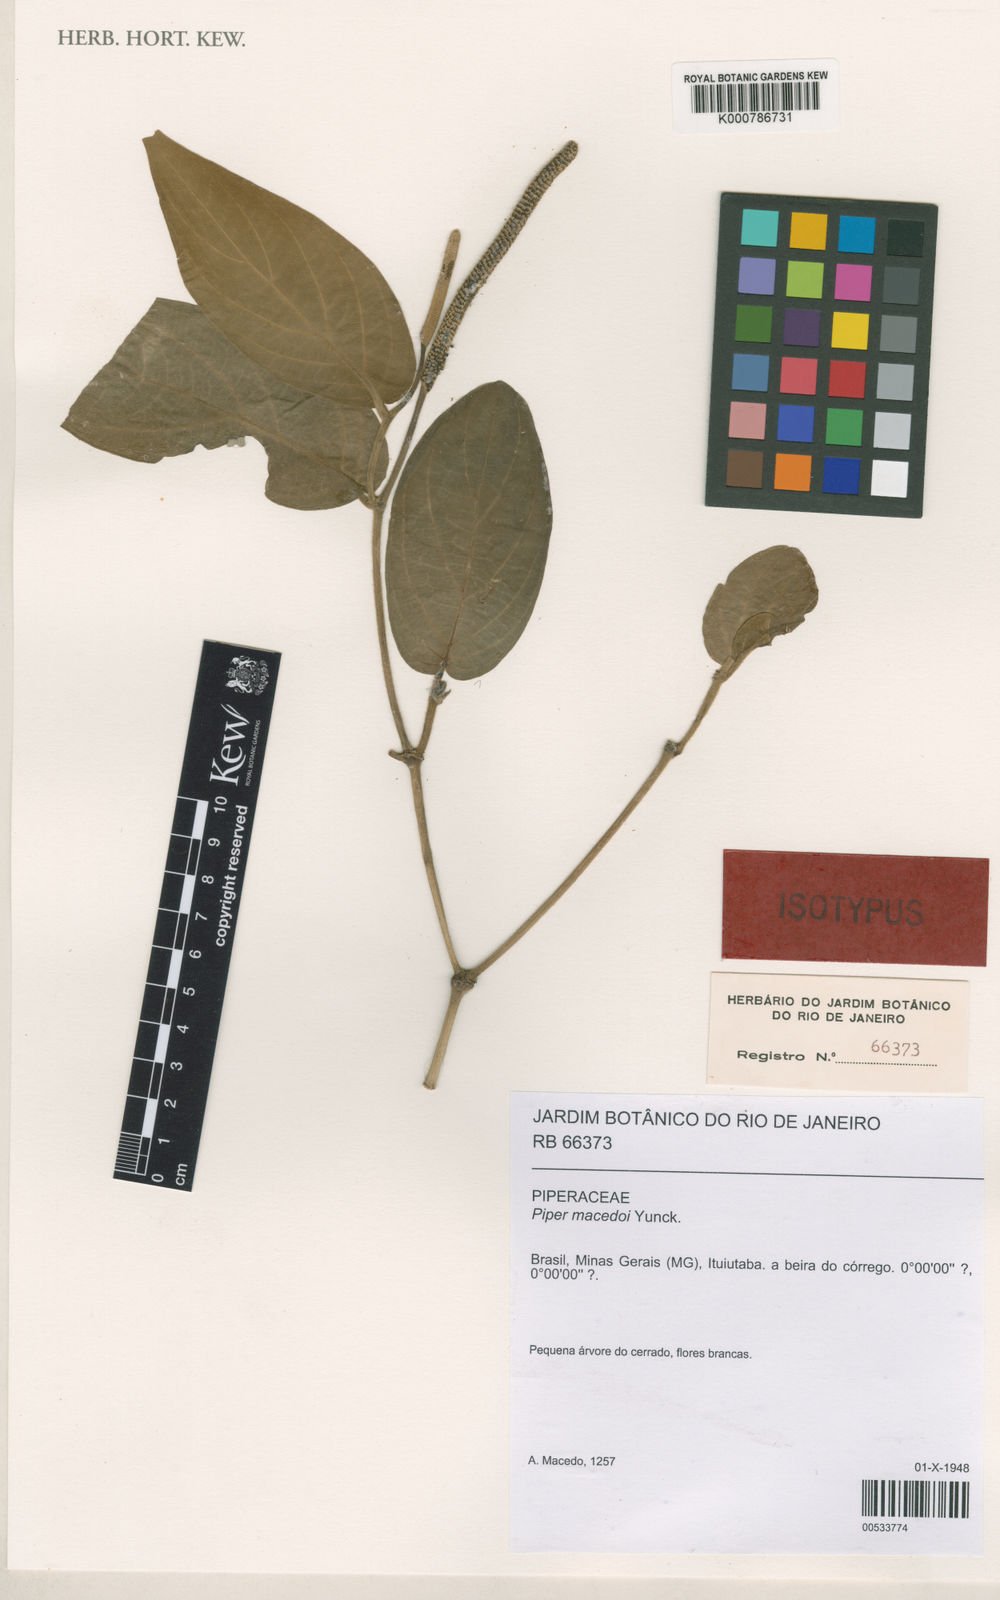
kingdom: Plantae
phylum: Tracheophyta
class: Magnoliopsida
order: Piperales
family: Piperaceae
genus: Piper
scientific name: Piper macedoi
